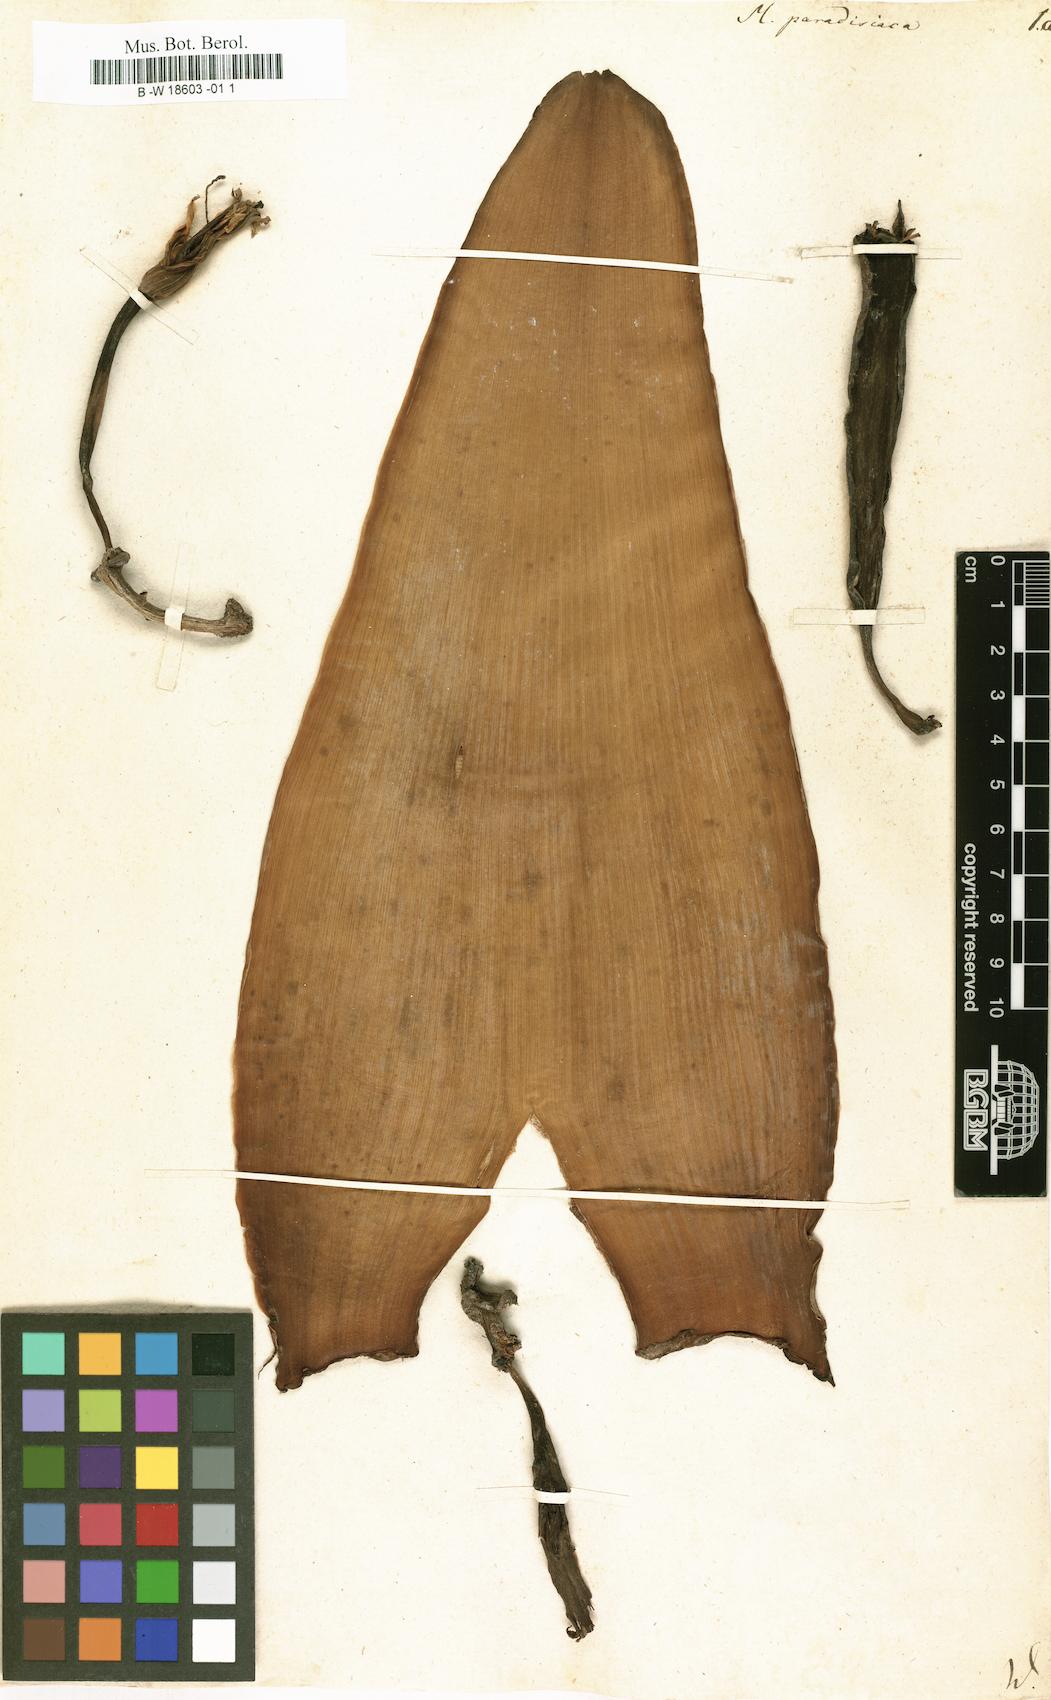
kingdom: Plantae
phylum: Tracheophyta
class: Liliopsida
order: Zingiberales
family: Musaceae
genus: Musa
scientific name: Musa paradisiaca
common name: French plantain
